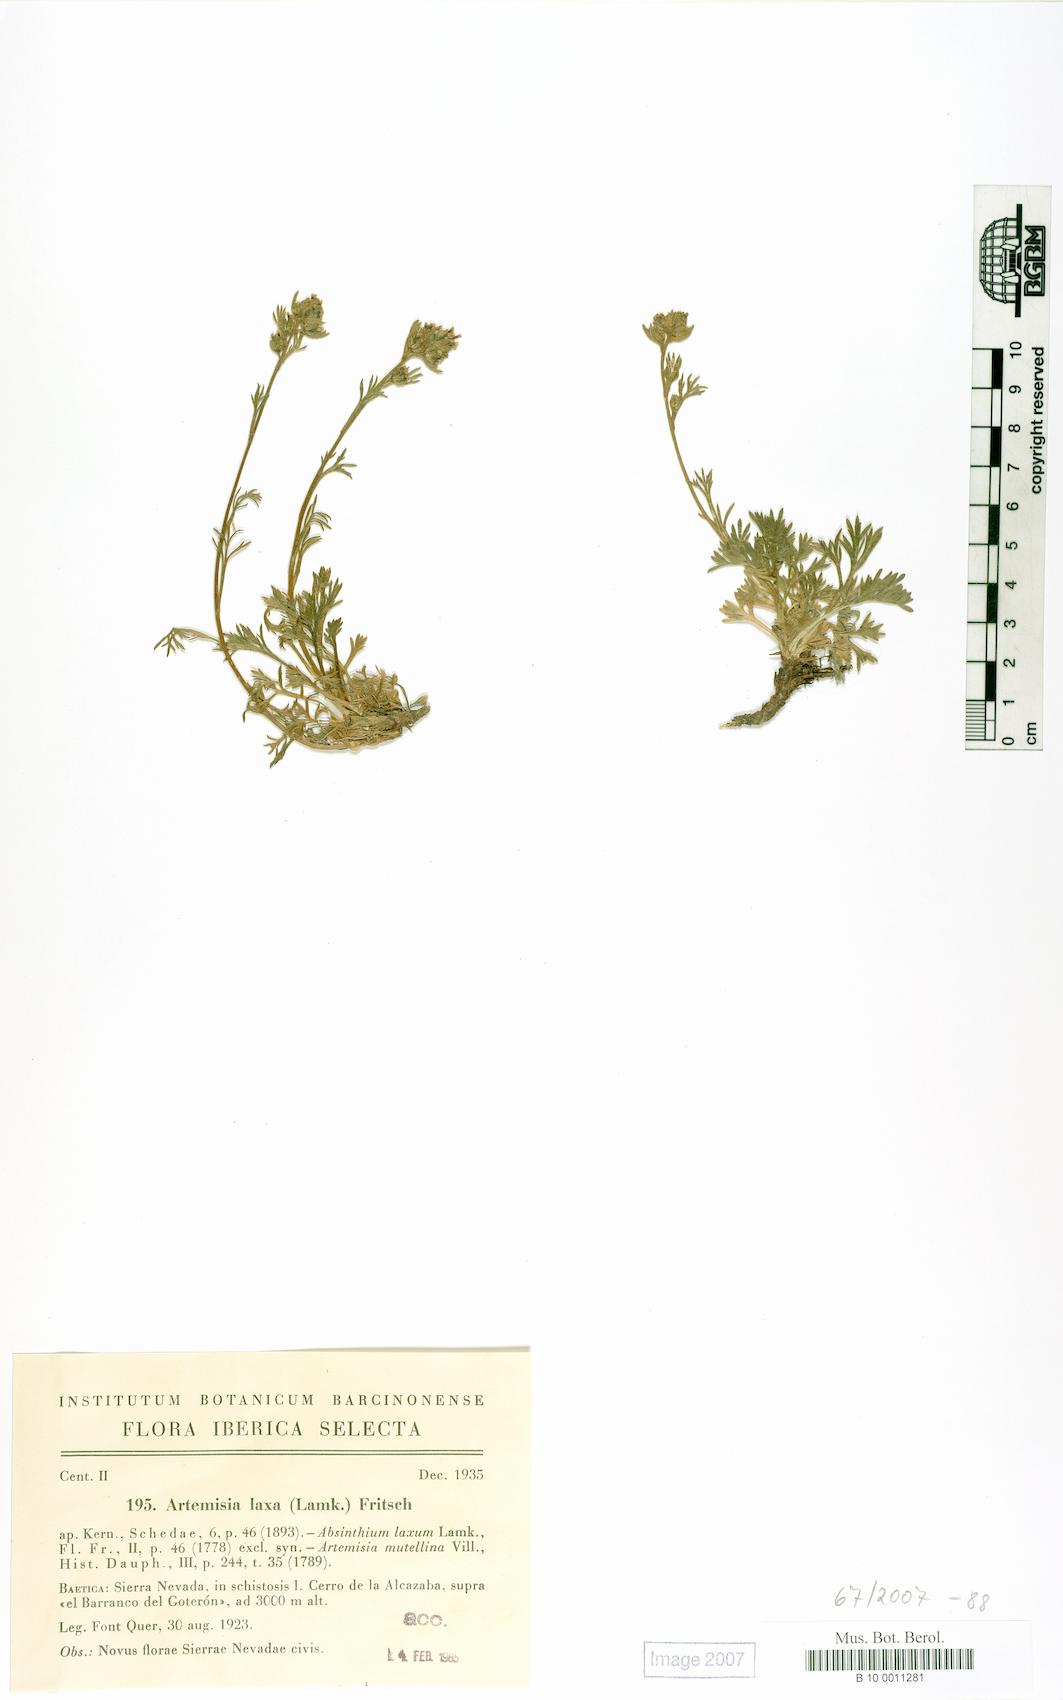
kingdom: Plantae
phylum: Tracheophyta
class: Magnoliopsida
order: Asterales
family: Asteraceae
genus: Artemisia
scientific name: Artemisia mutellina
